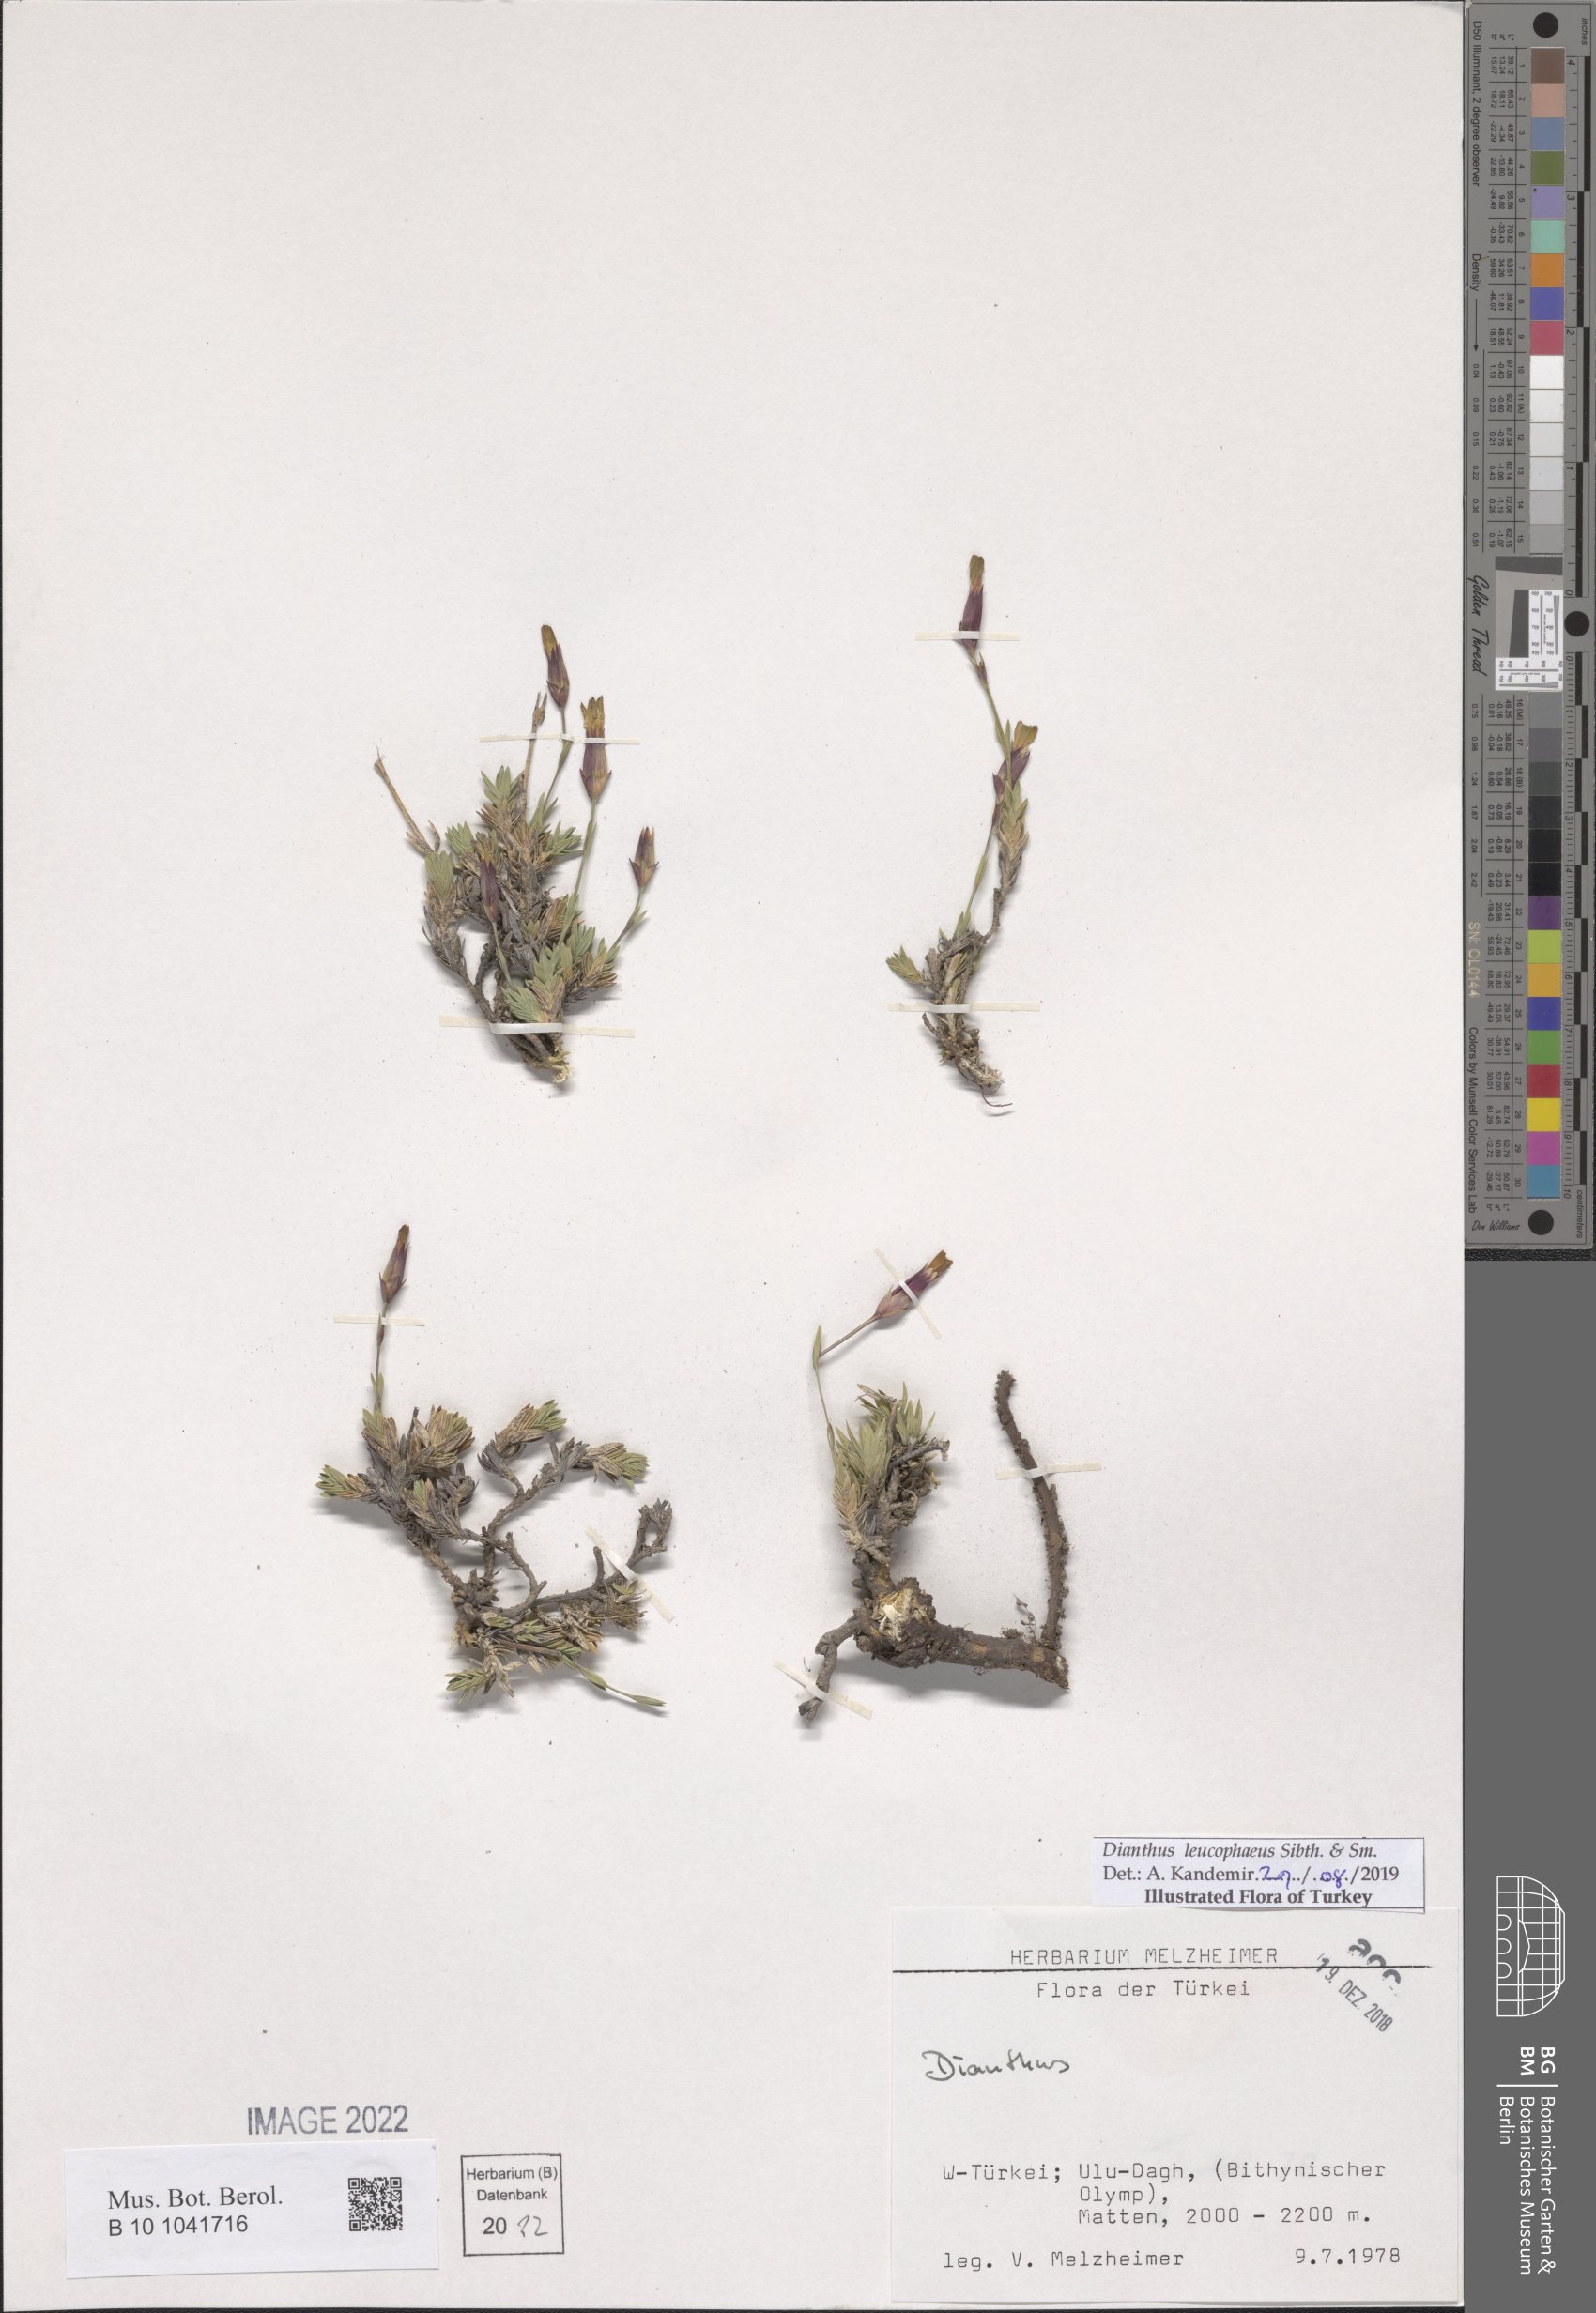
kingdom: Plantae
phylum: Tracheophyta
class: Magnoliopsida
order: Caryophyllales
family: Caryophyllaceae
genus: Dianthus
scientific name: Dianthus leucophaeus
